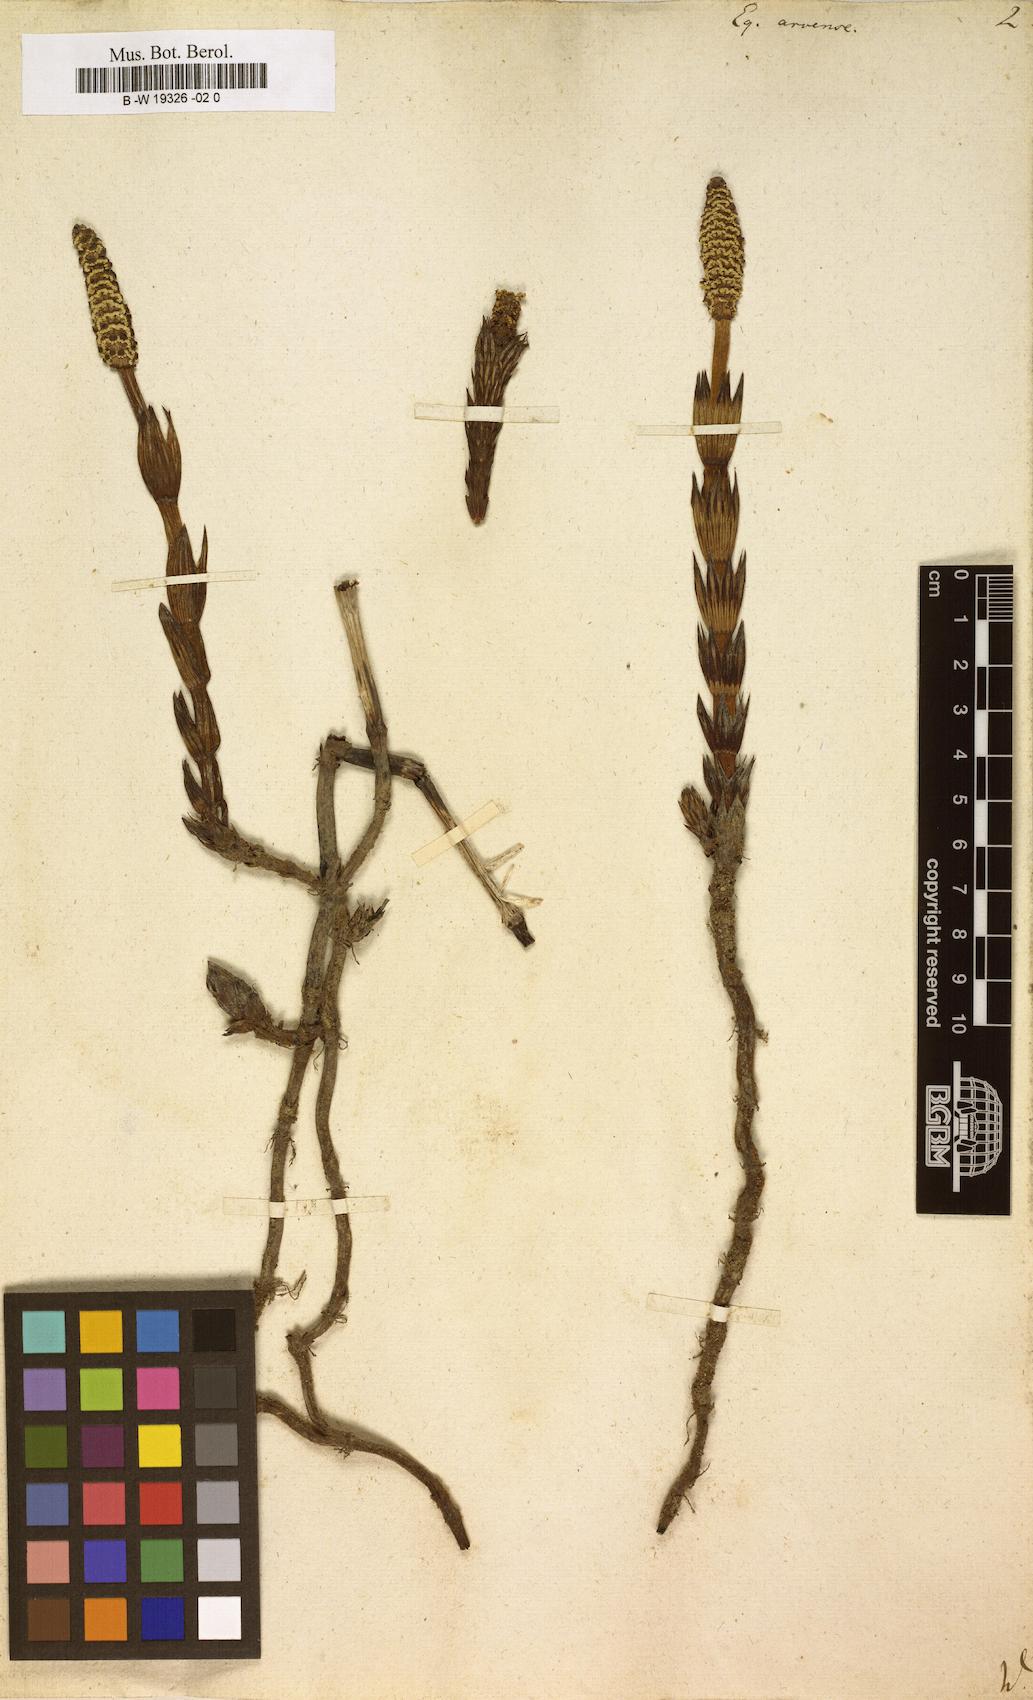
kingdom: Plantae
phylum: Tracheophyta
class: Polypodiopsida
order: Equisetales
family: Equisetaceae
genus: Equisetum
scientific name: Equisetum arvense
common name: Field horsetail
